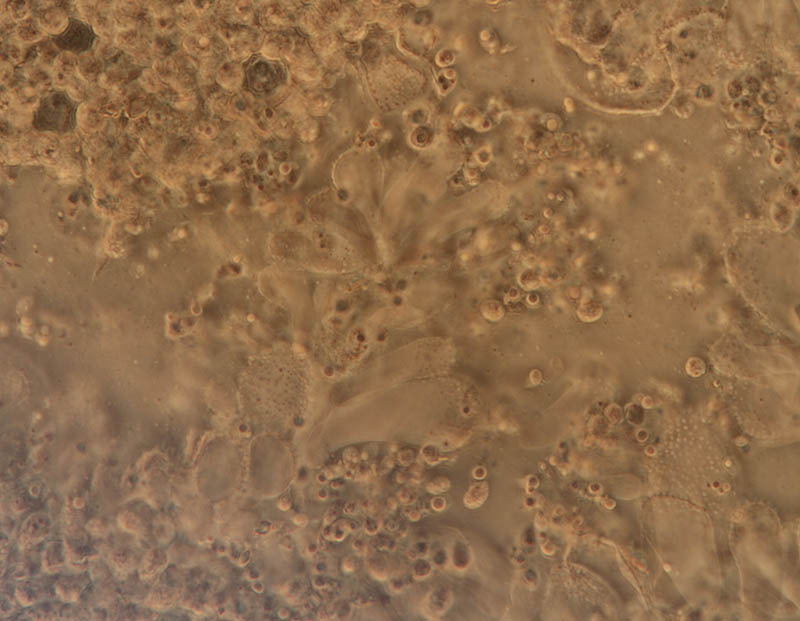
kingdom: Fungi
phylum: Basidiomycota
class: Agaricomycetes
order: Agaricales
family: Mycenaceae
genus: Mycena
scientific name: Mycena flavescens
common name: grågul huesvamp
